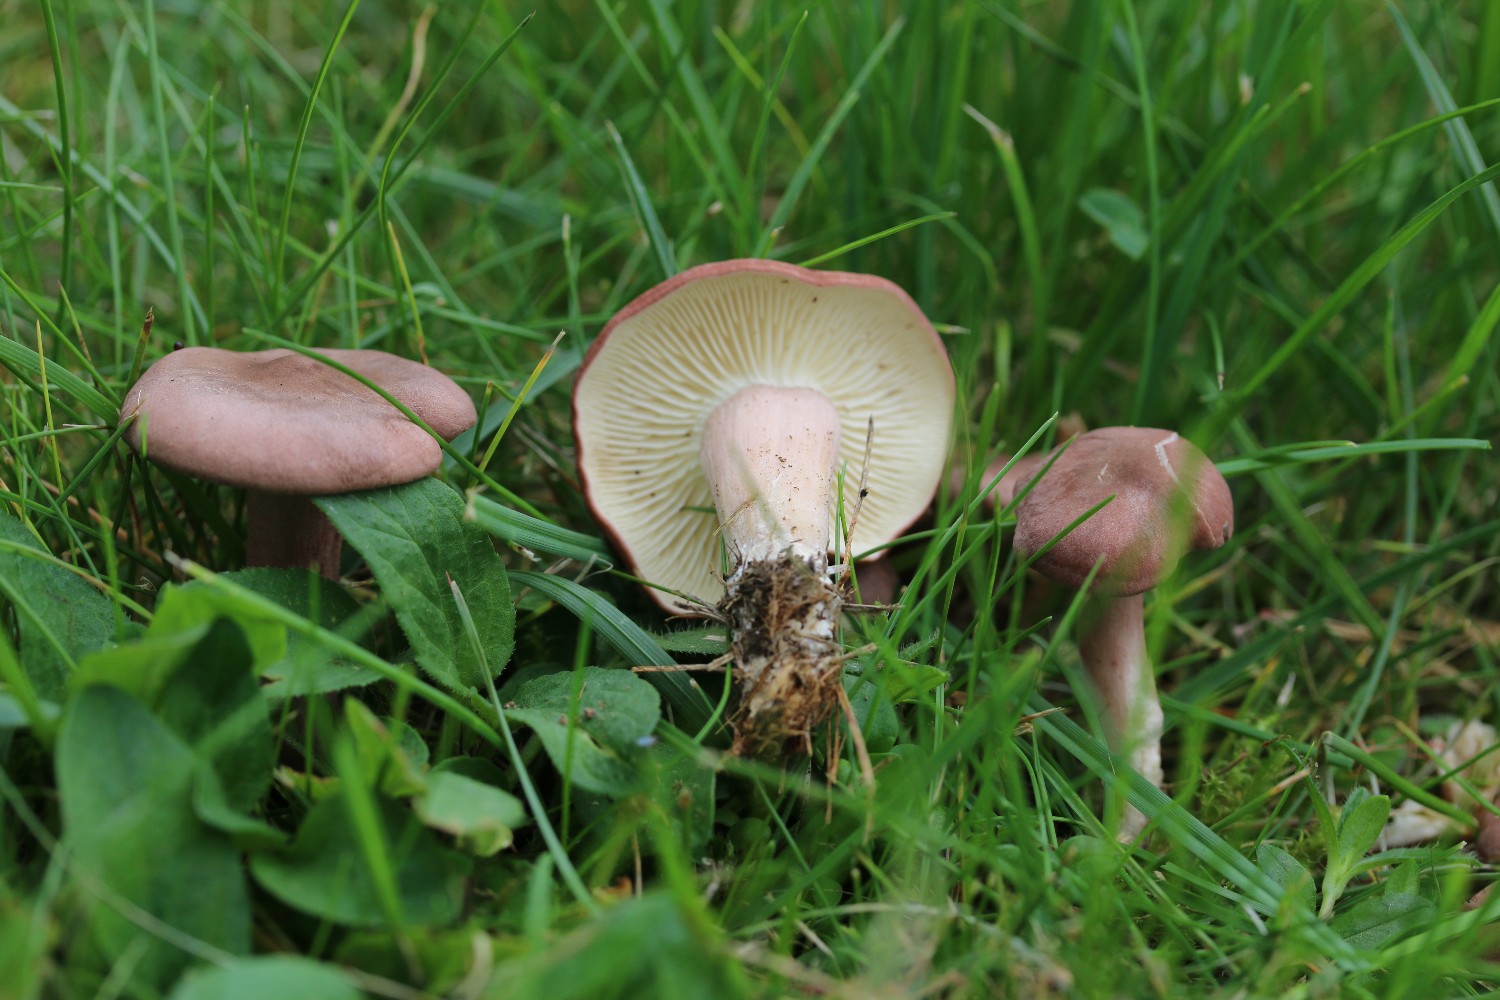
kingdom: Fungi
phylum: Basidiomycota
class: Agaricomycetes
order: Agaricales
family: Lyophyllaceae
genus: Calocybe
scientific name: Calocybe carnea
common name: rosa fagerhat
